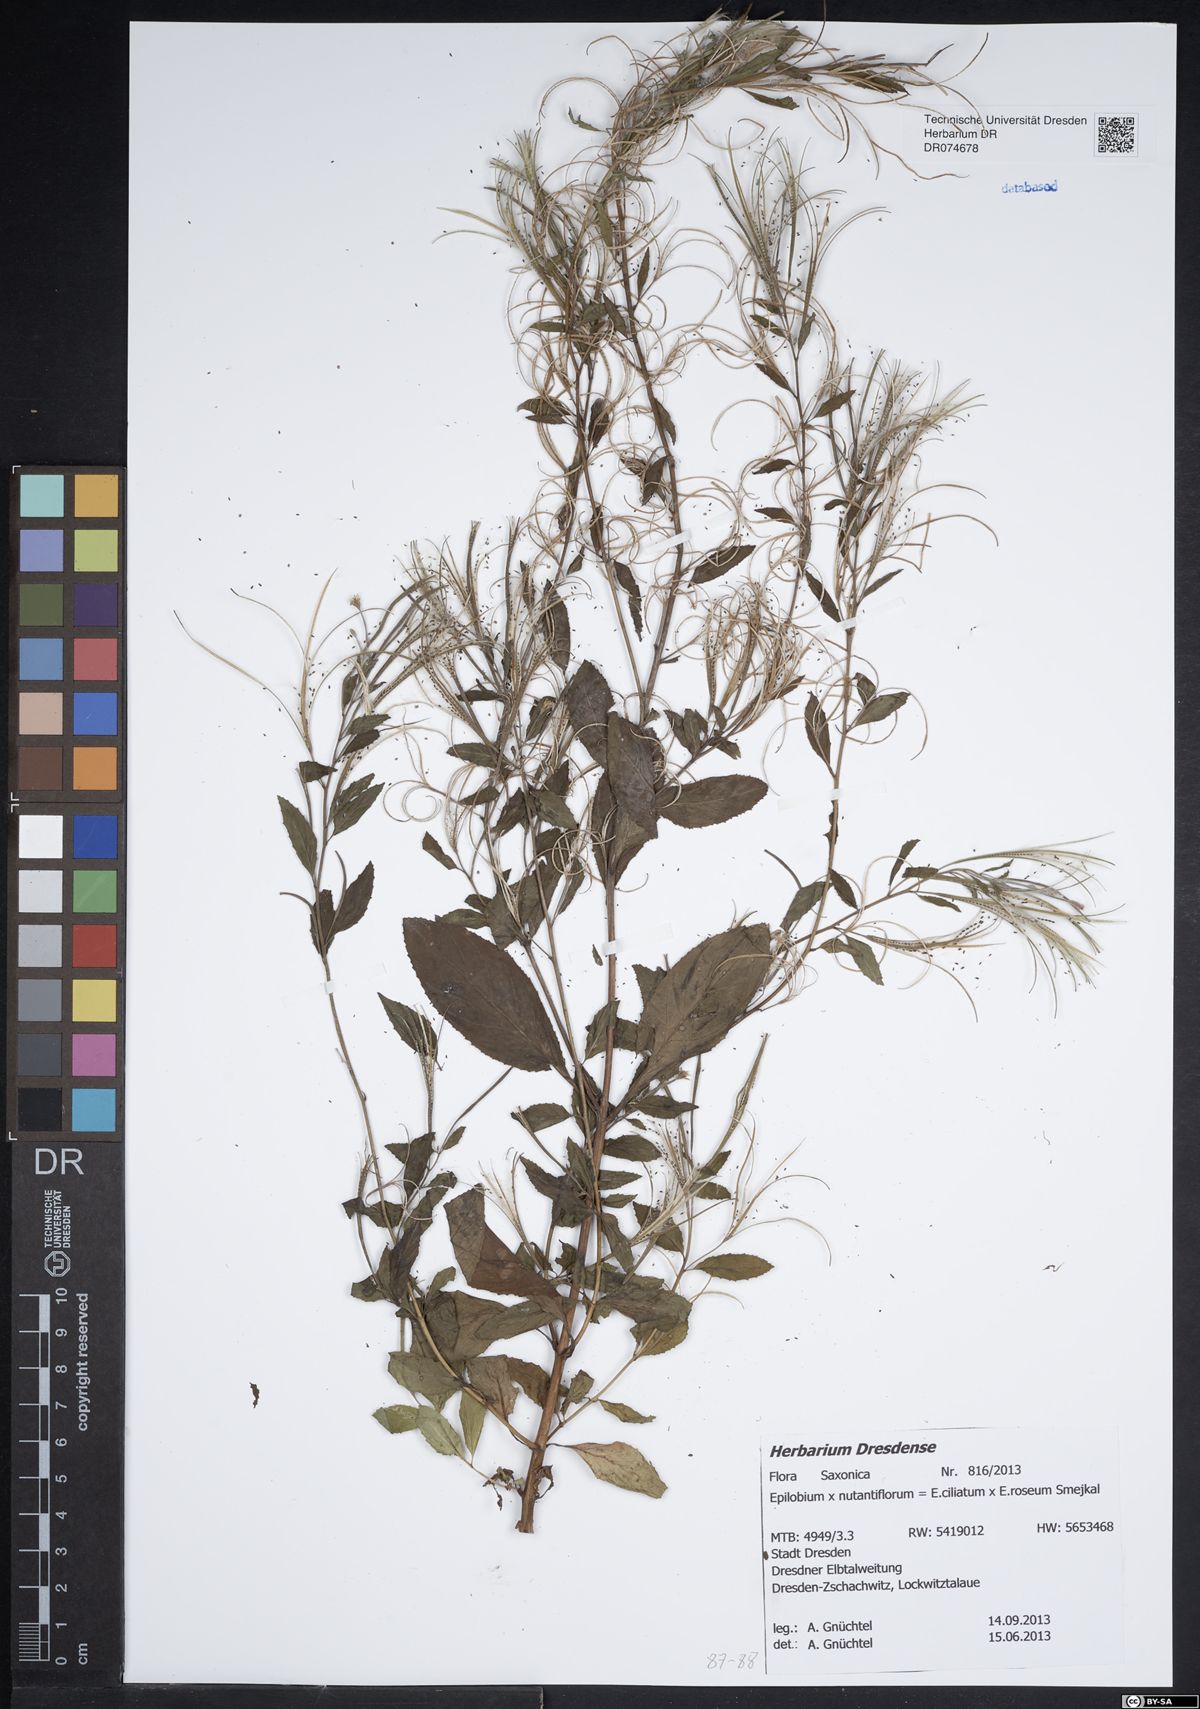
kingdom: Plantae
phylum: Tracheophyta
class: Magnoliopsida
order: Myrtales
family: Onagraceae
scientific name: Onagraceae
